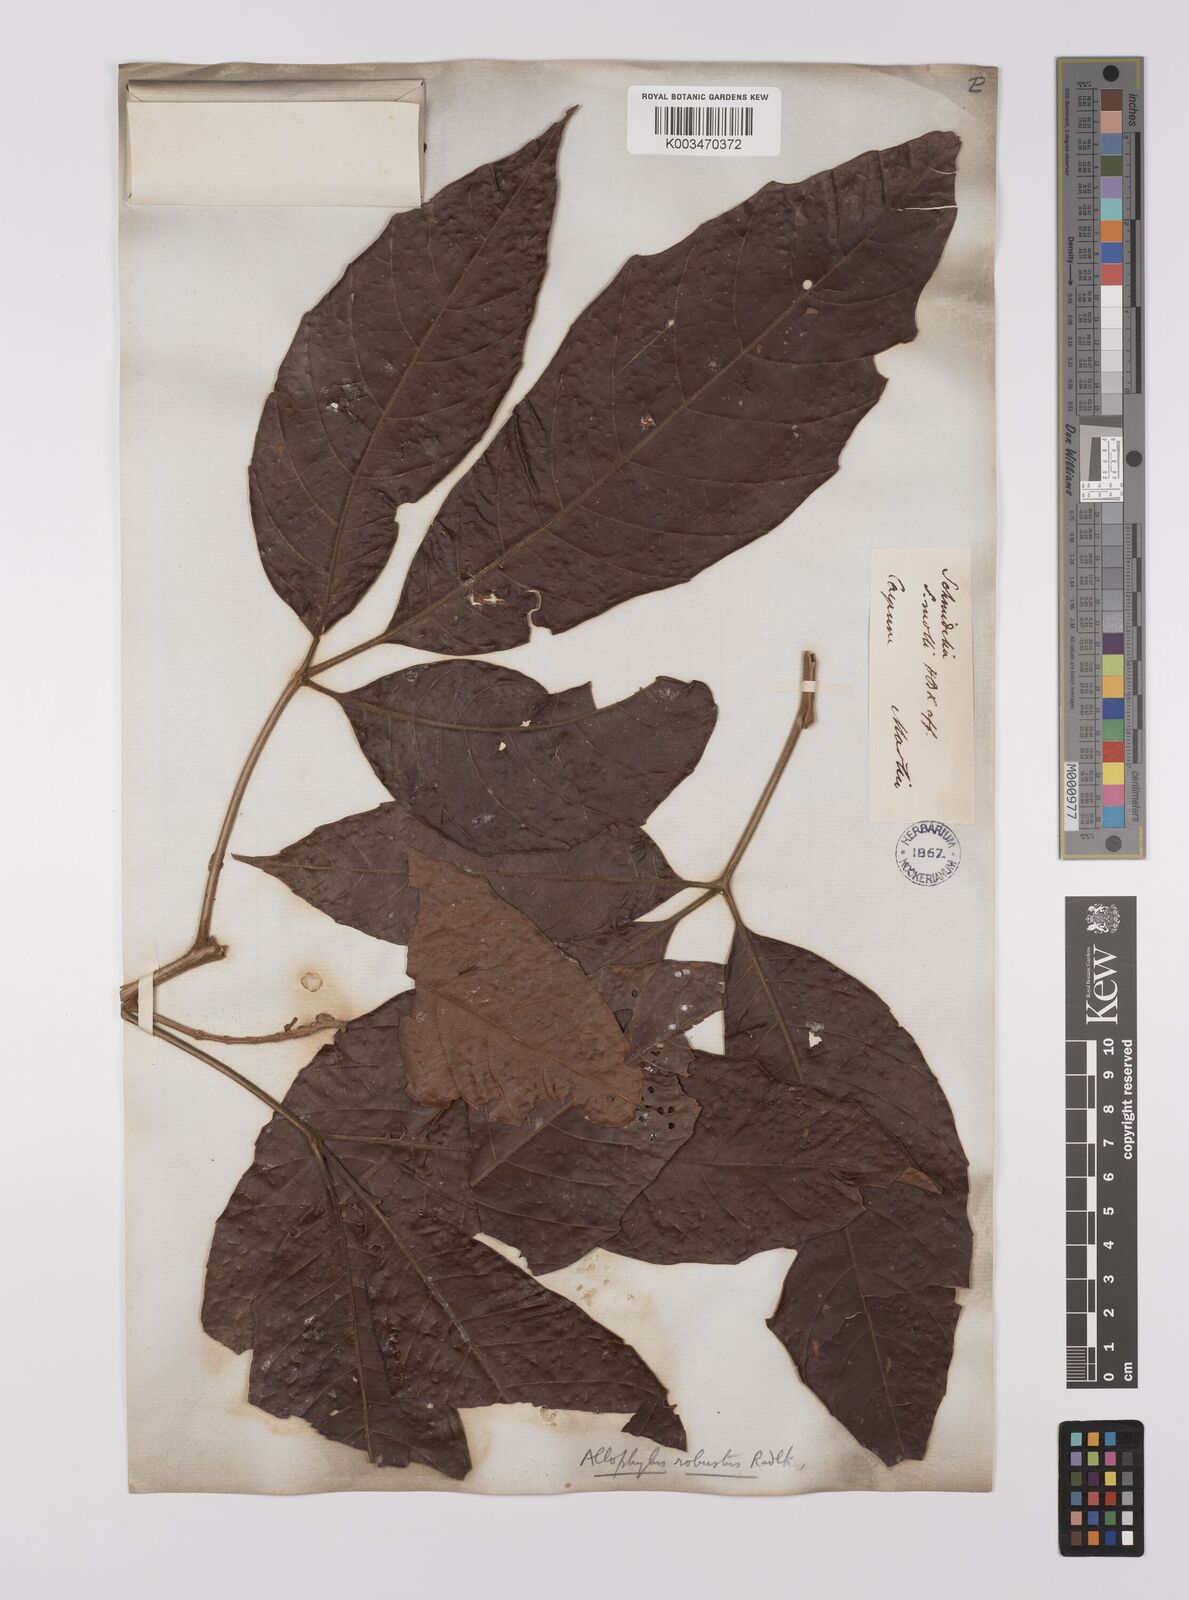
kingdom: Plantae
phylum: Tracheophyta
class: Magnoliopsida
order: Sapindales
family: Sapindaceae
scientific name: Sapindaceae
